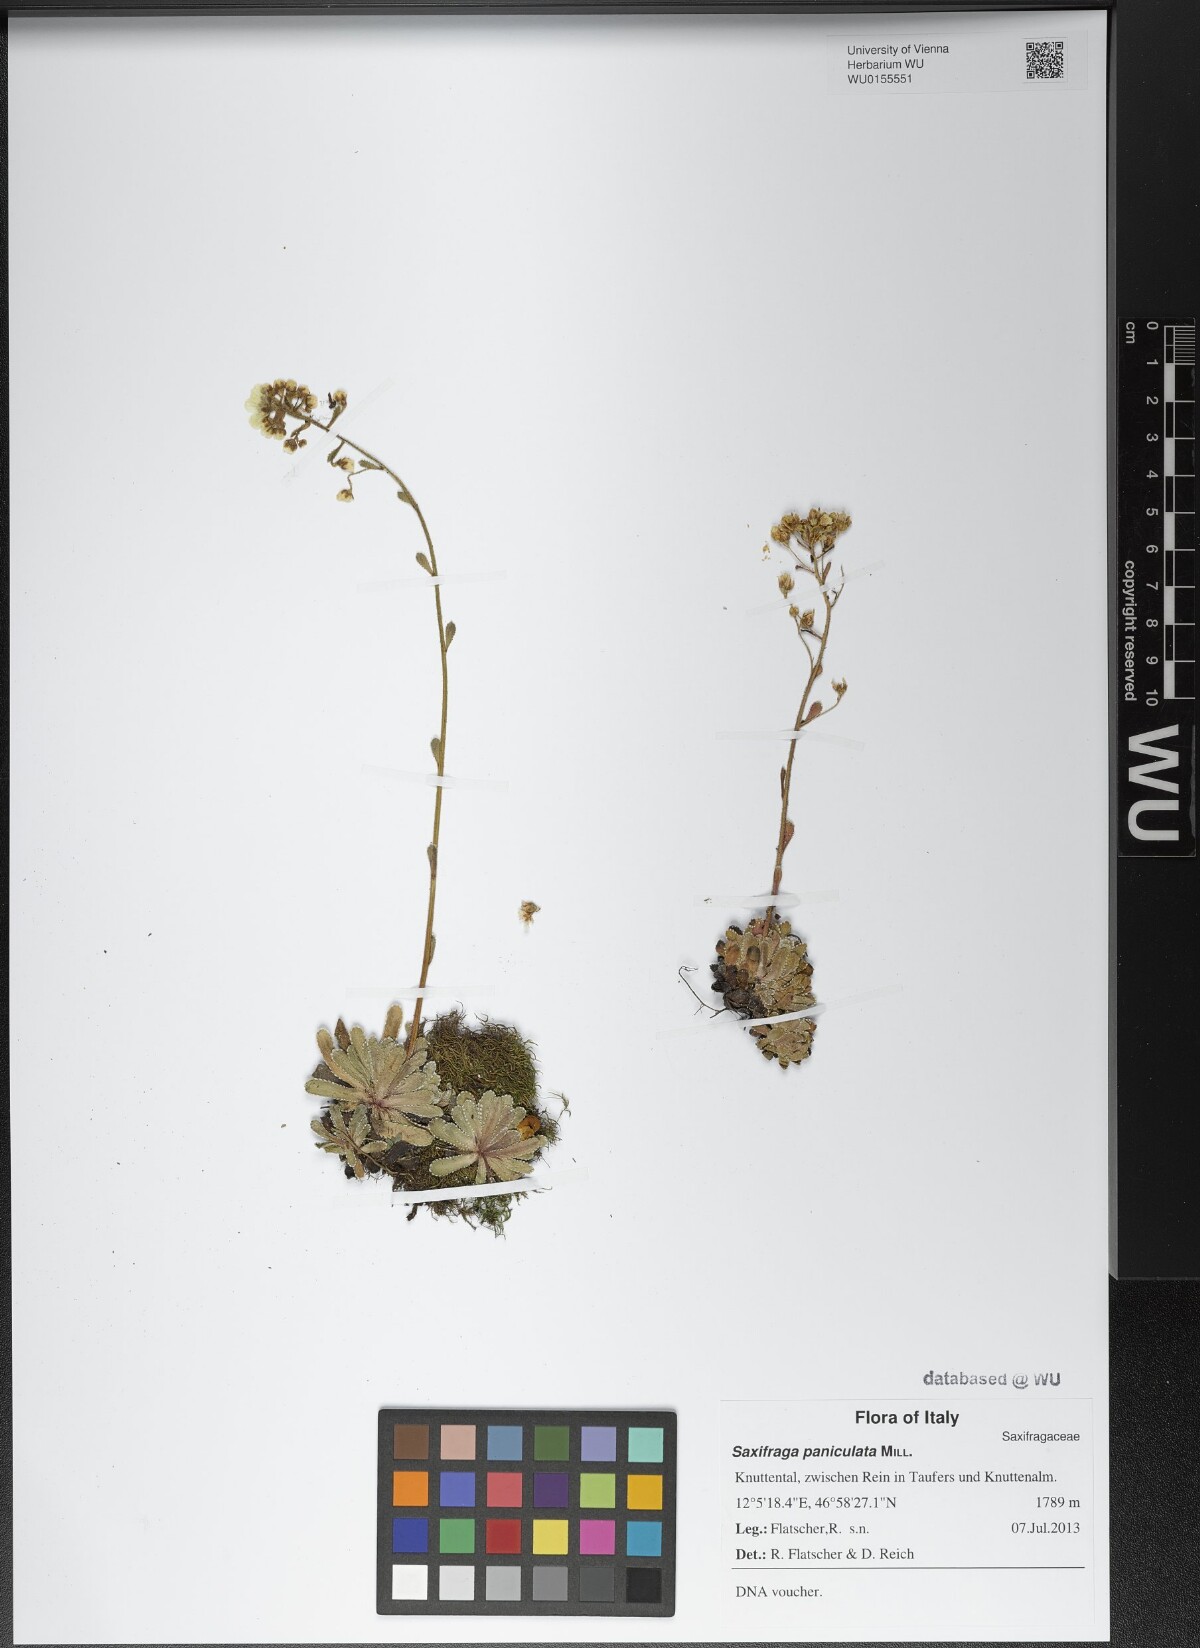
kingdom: Plantae
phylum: Tracheophyta
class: Magnoliopsida
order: Saxifragales
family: Saxifragaceae
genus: Saxifraga
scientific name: Saxifraga paniculata
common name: Livelong saxifrage
